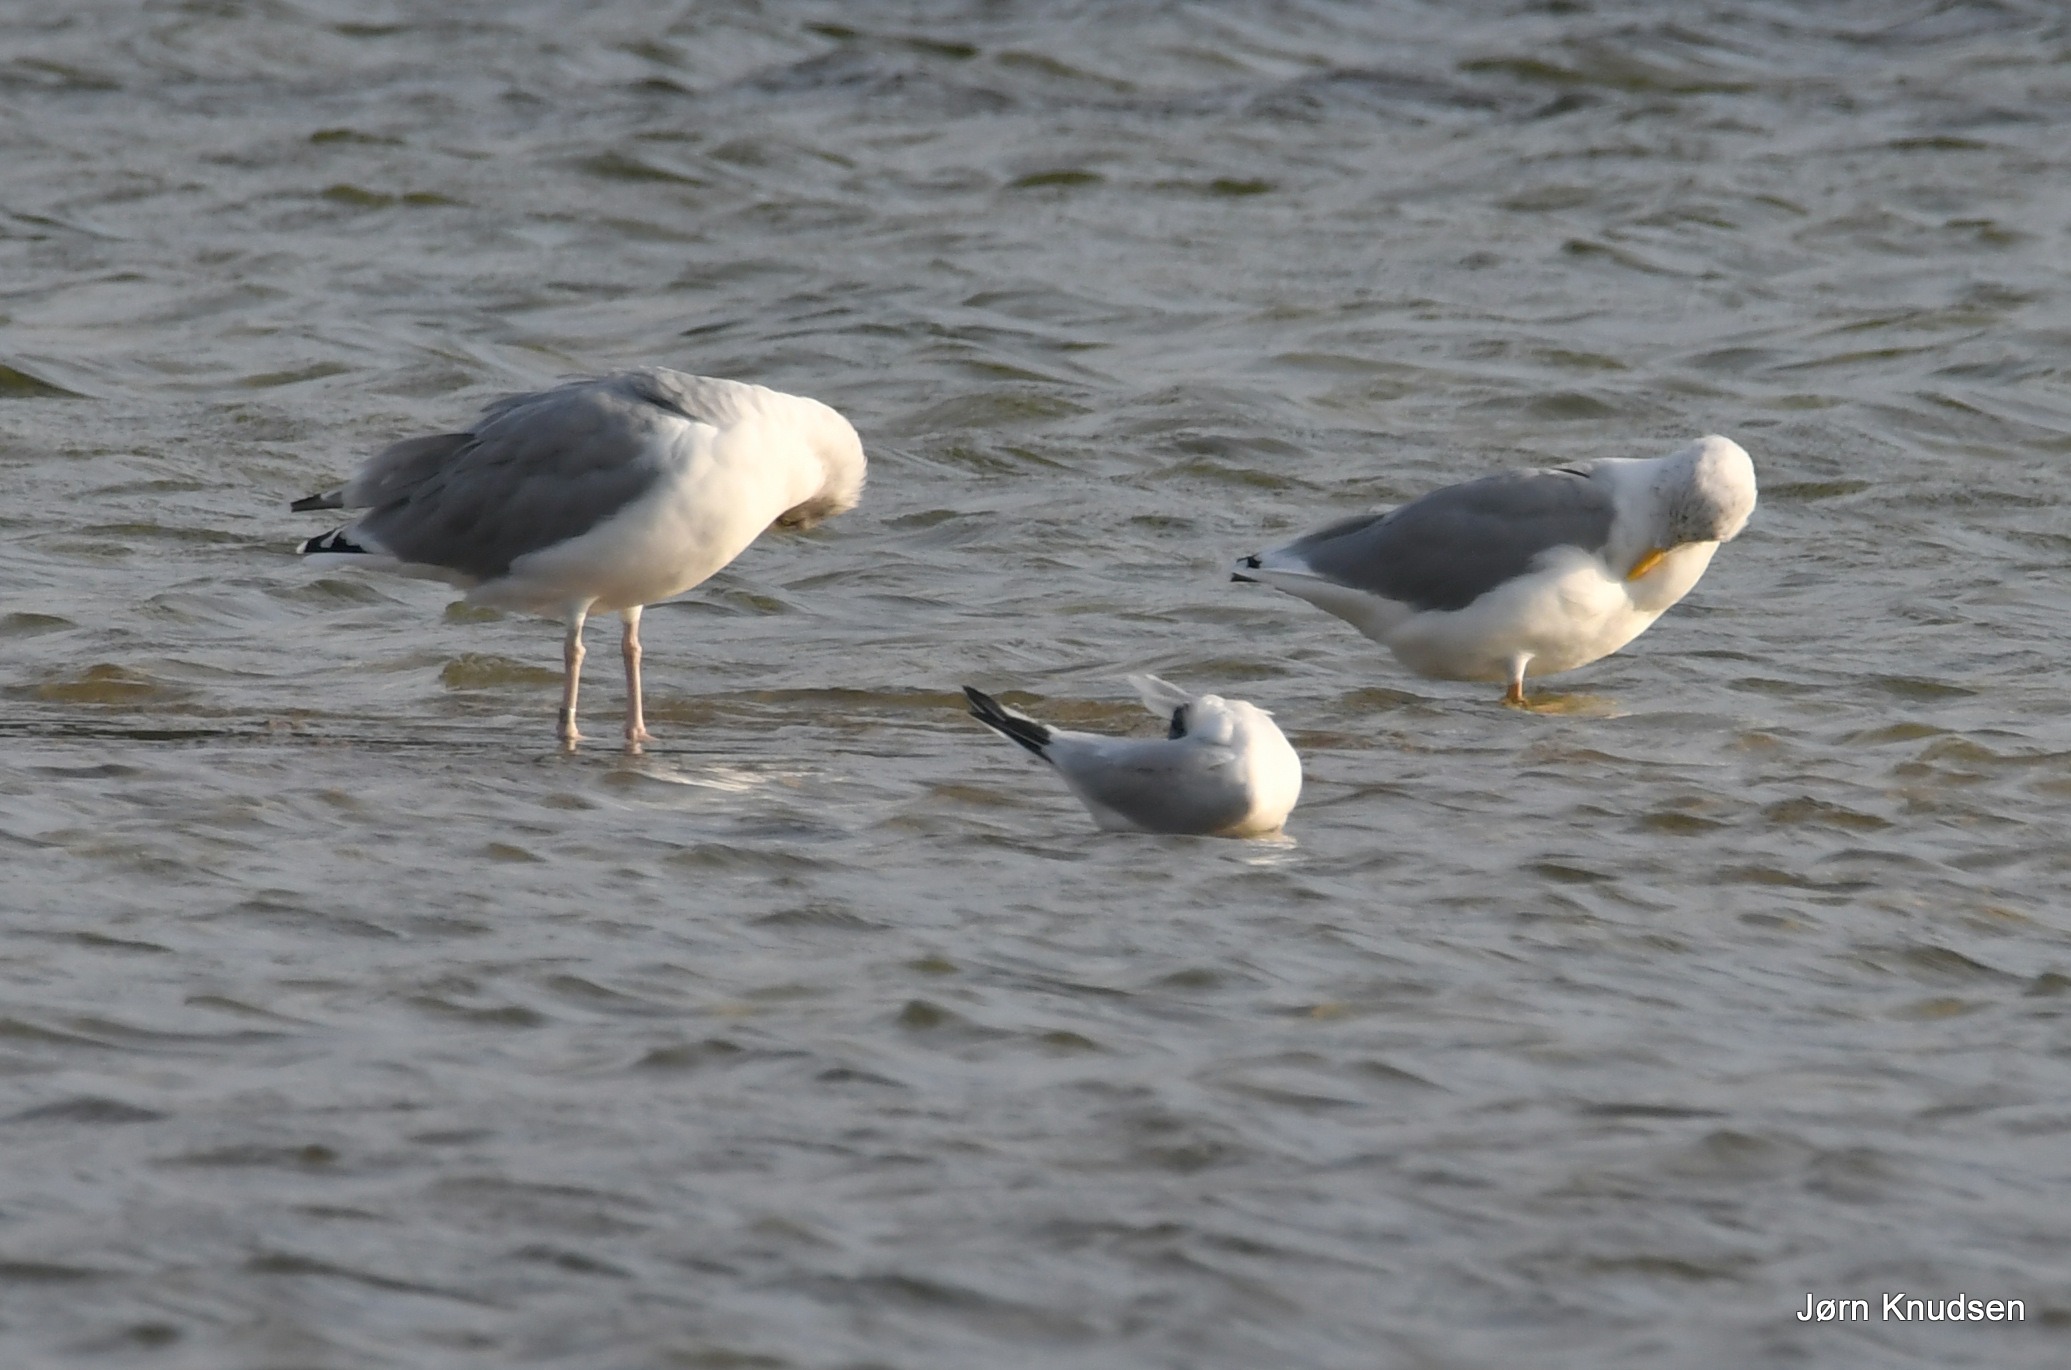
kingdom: Animalia
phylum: Chordata
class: Aves
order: Charadriiformes
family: Laridae
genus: Larus
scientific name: Larus argentatus
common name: Sølvmåge
